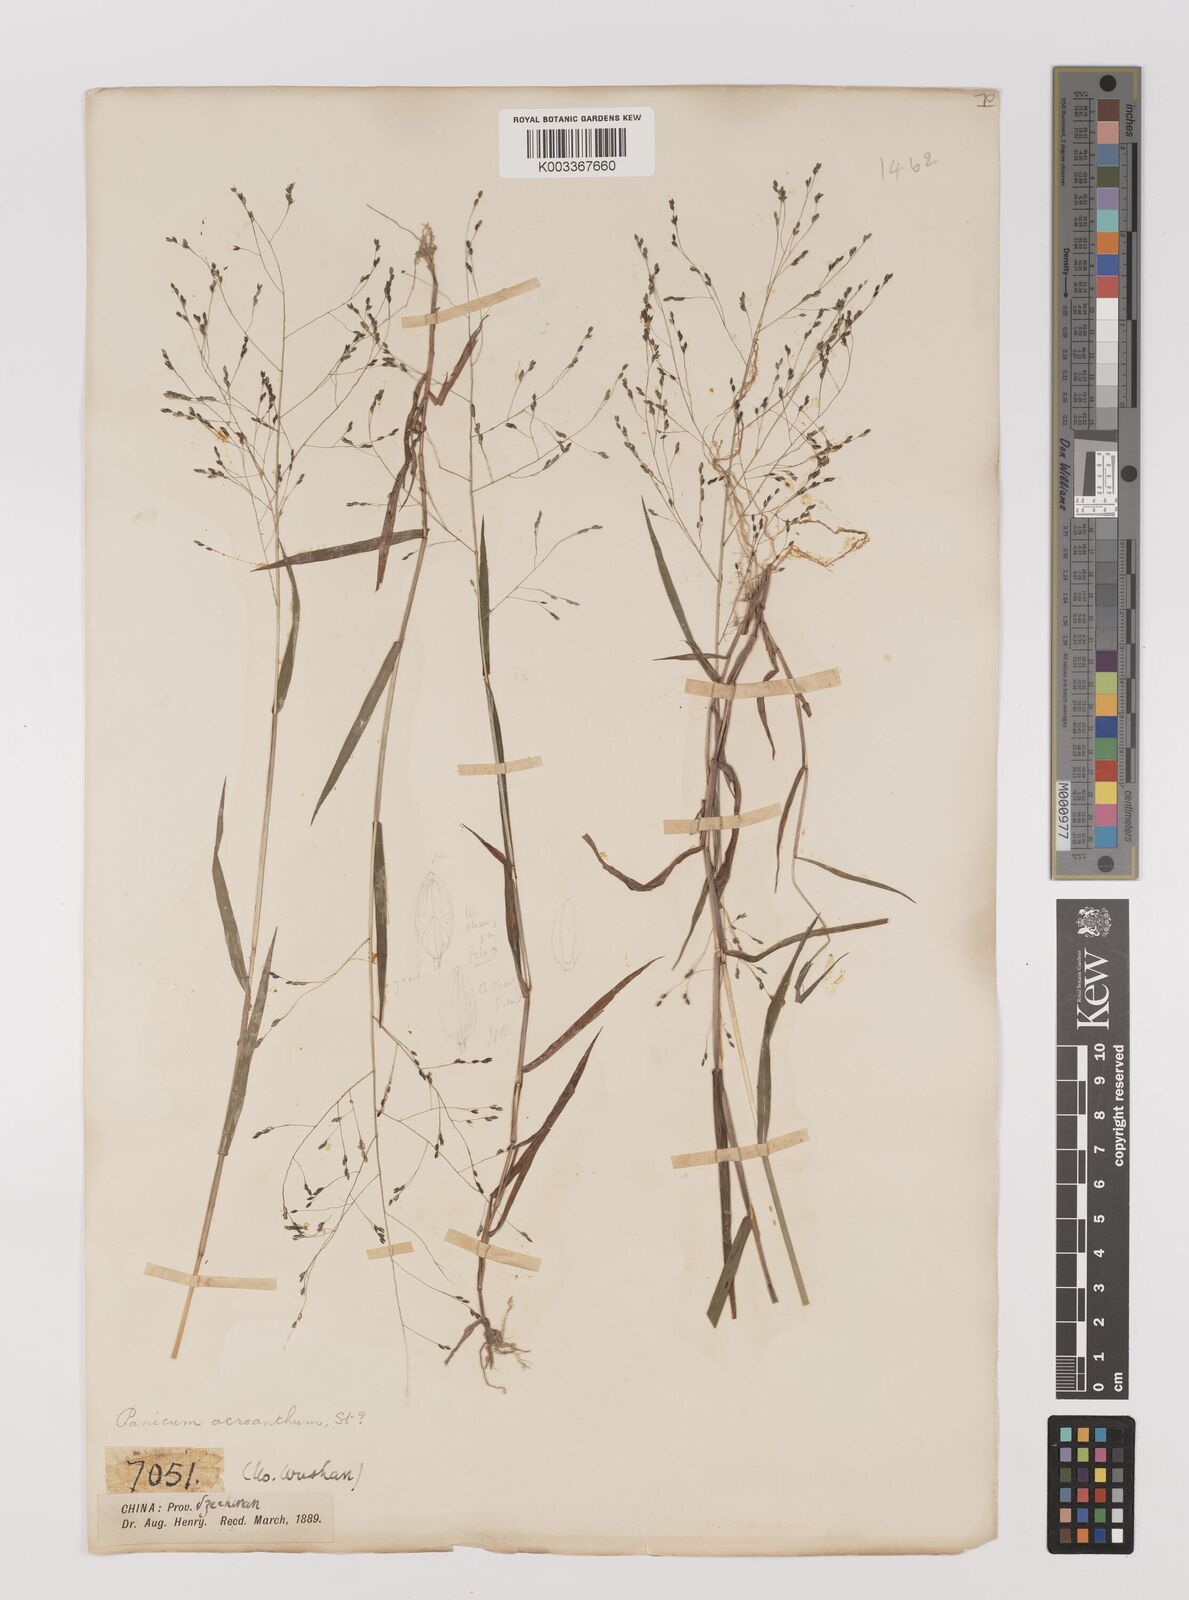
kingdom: Plantae
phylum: Tracheophyta
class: Liliopsida
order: Poales
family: Poaceae
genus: Panicum
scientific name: Panicum bisulcatum
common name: Japanese panicgrass
